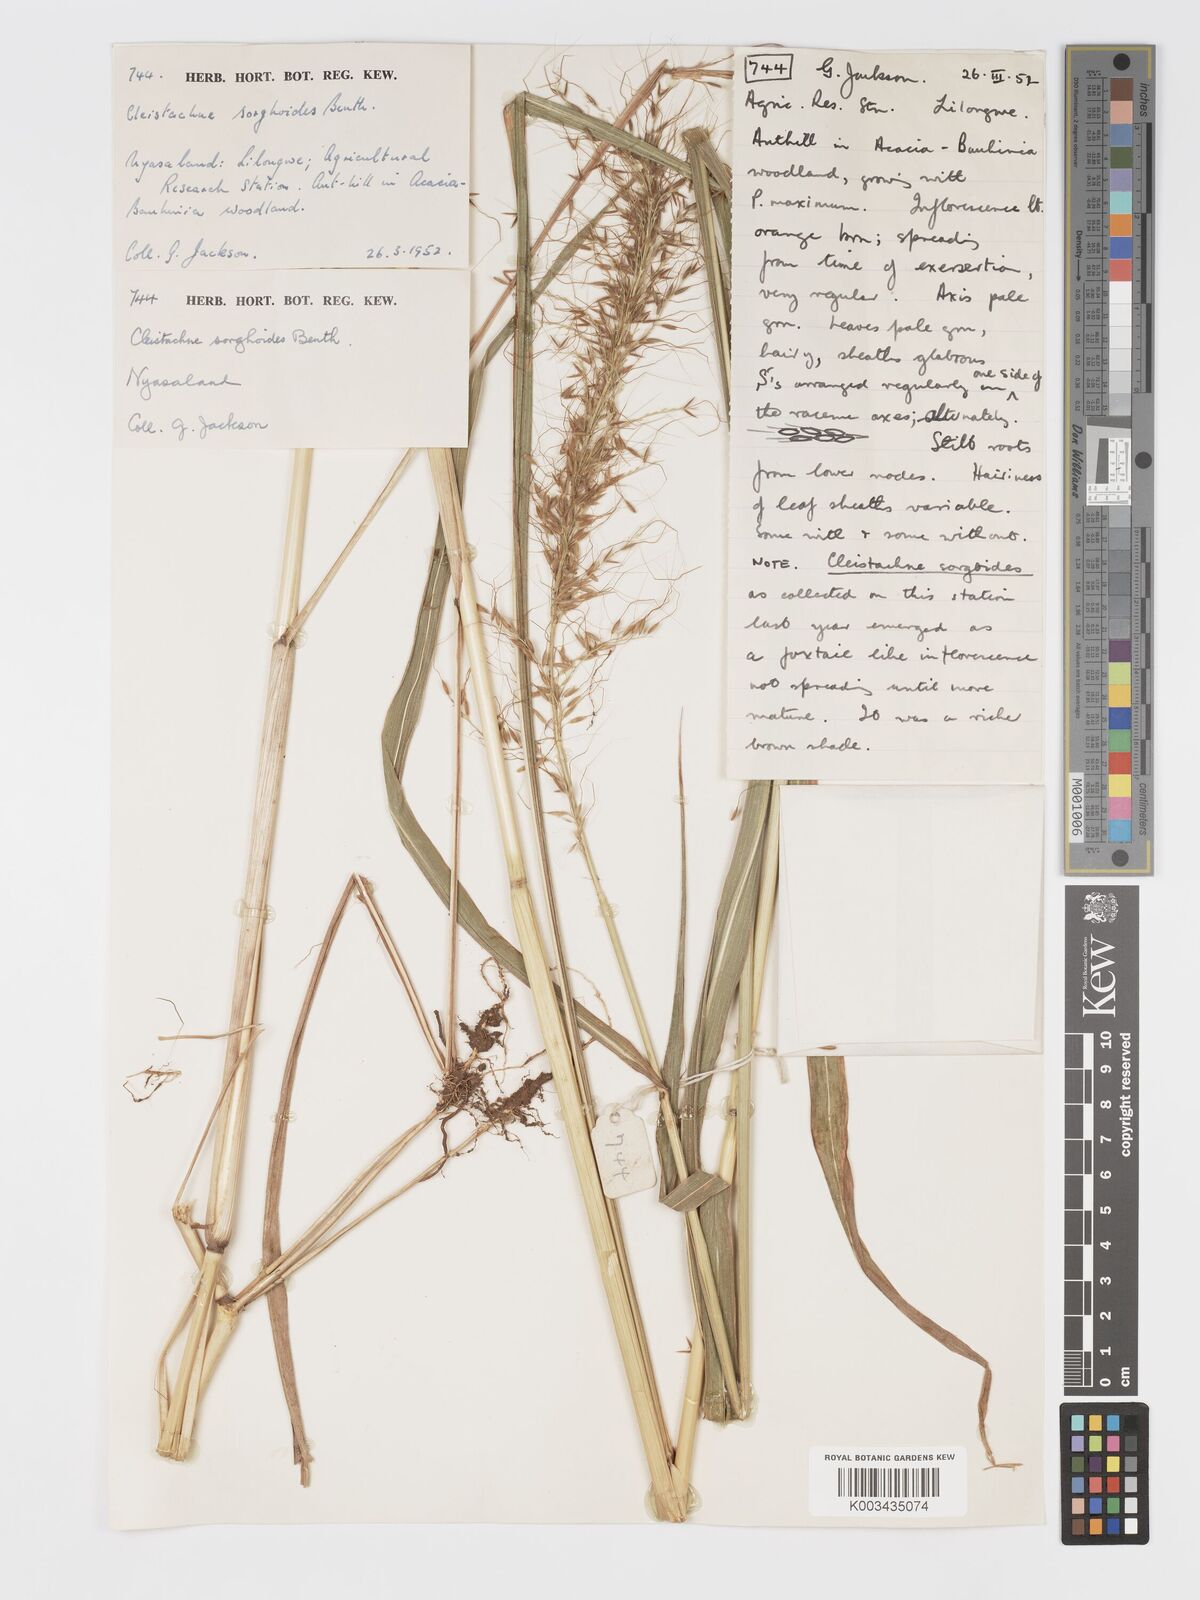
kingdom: Plantae
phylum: Tracheophyta
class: Liliopsida
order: Poales
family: Poaceae
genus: Cleistachne
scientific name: Cleistachne sorghoides
